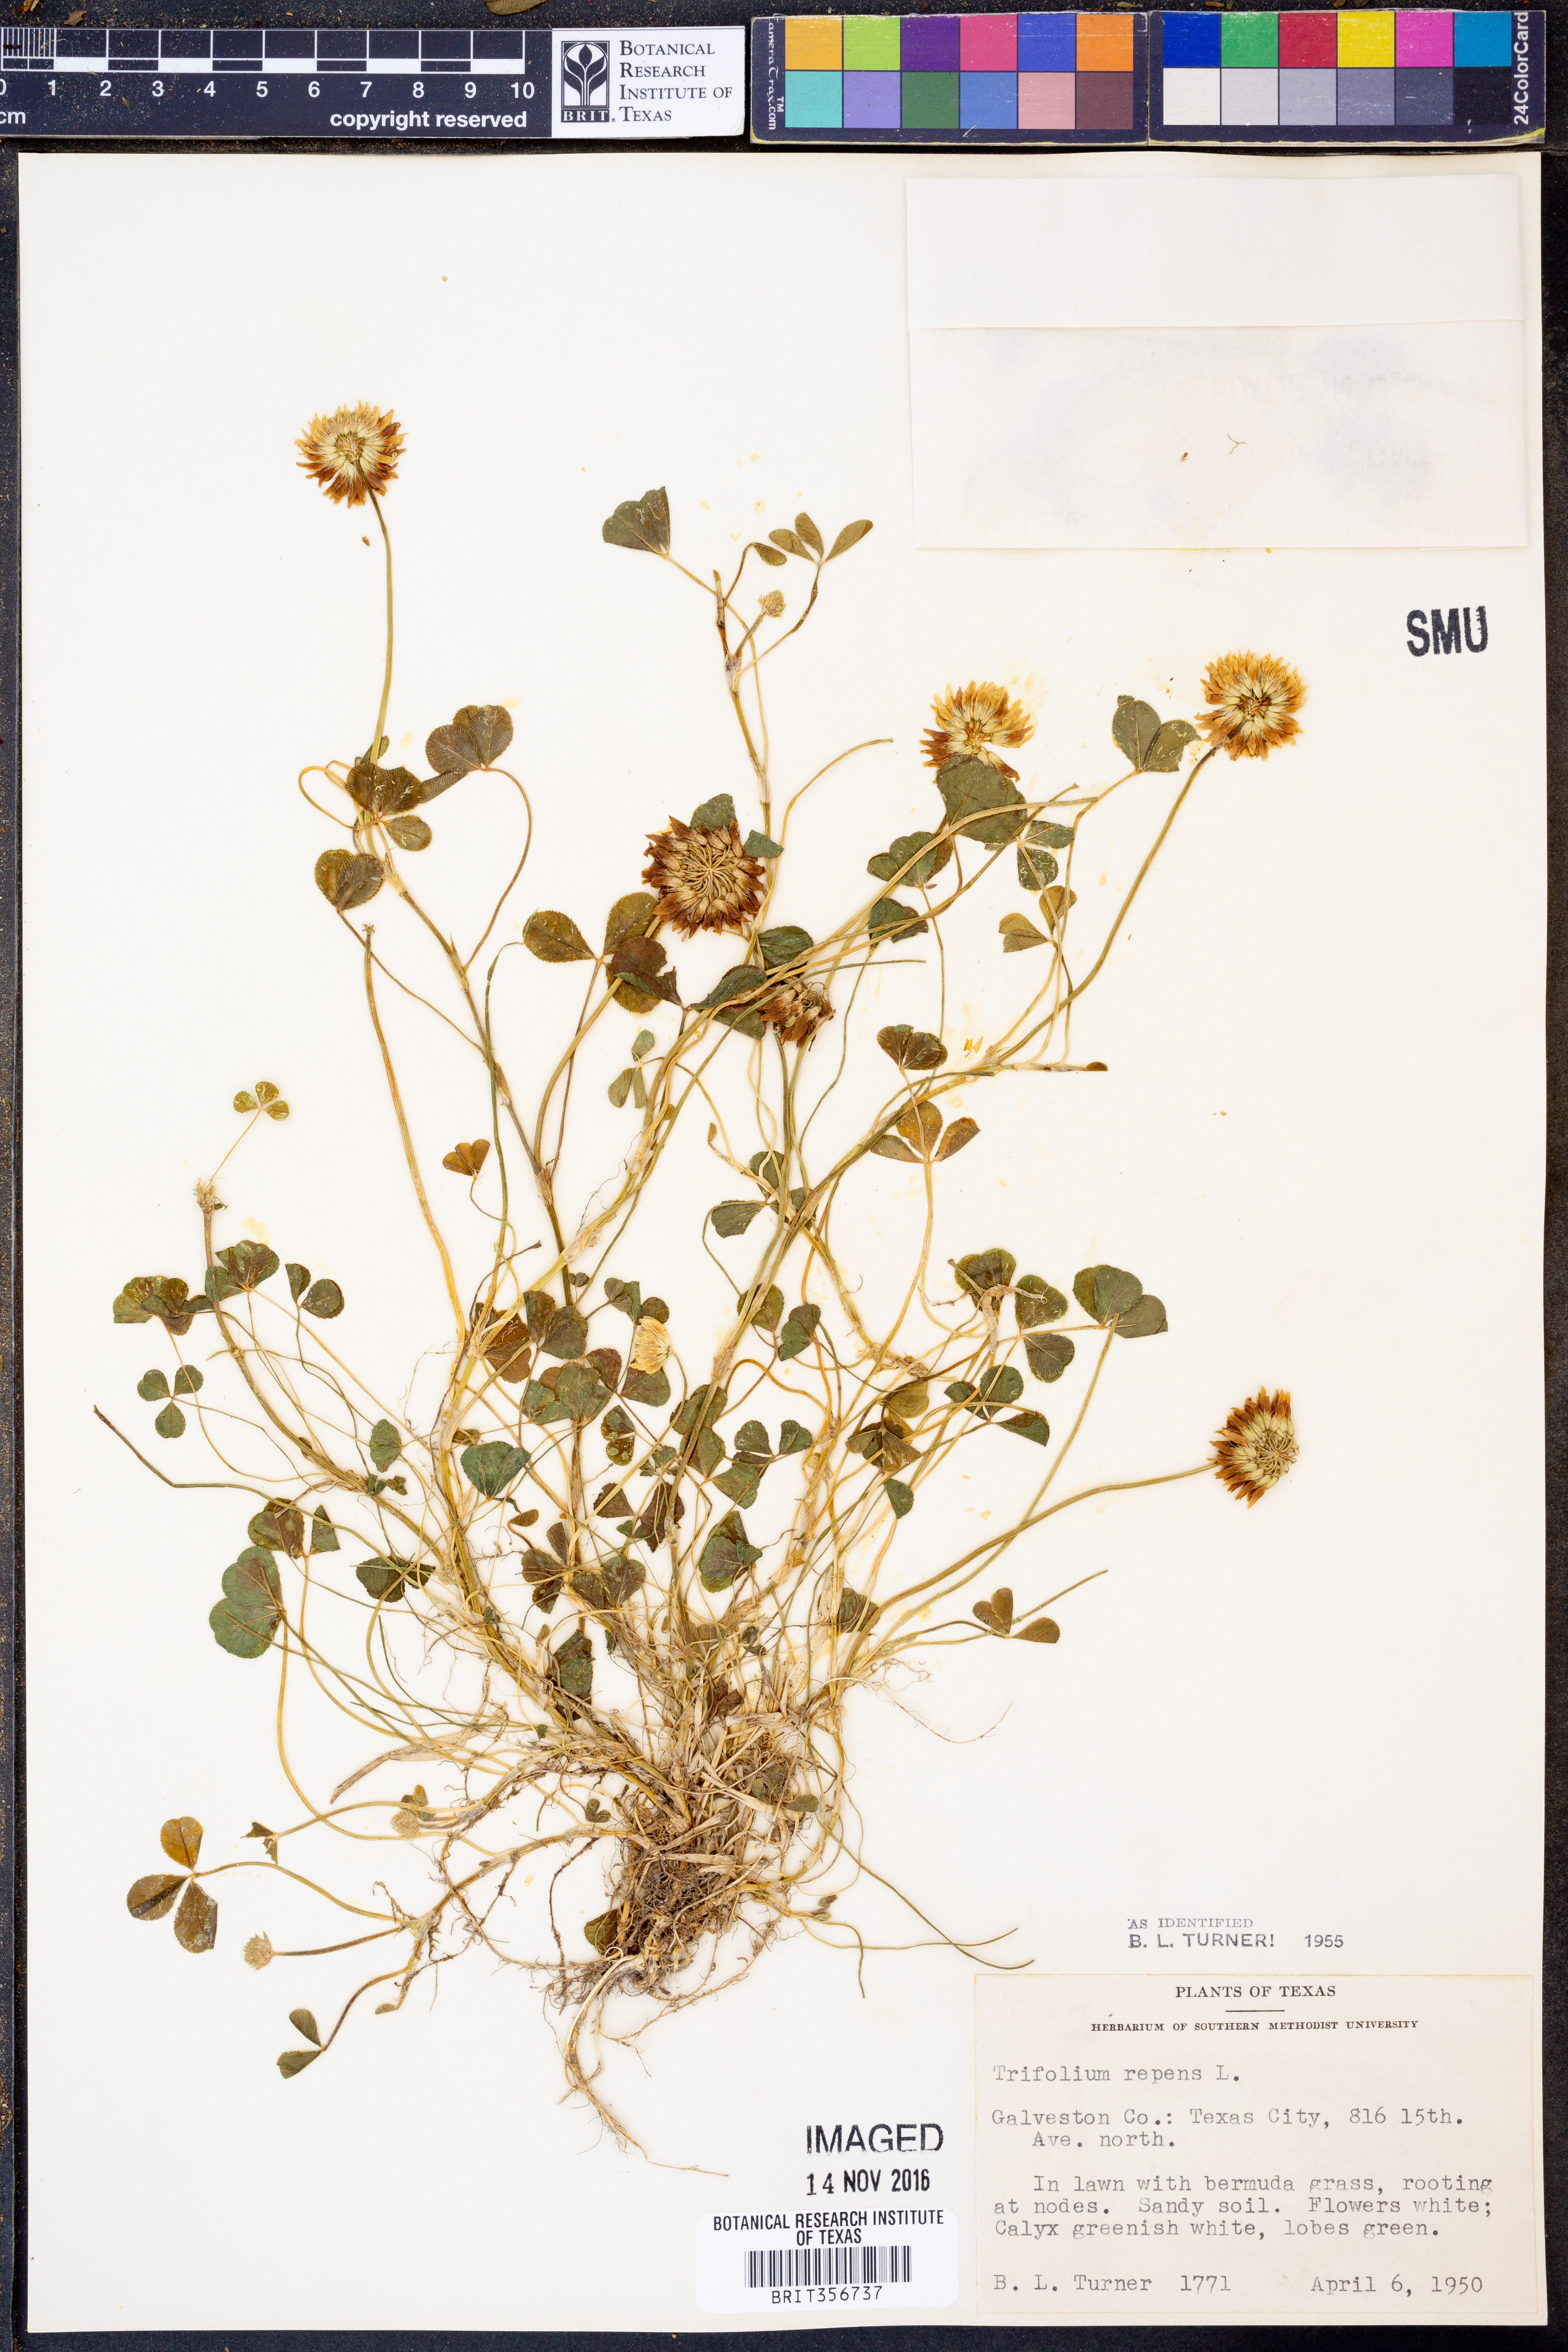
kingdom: Plantae
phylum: Tracheophyta
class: Magnoliopsida
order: Fabales
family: Fabaceae
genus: Trifolium
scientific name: Trifolium repens
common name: White clover
